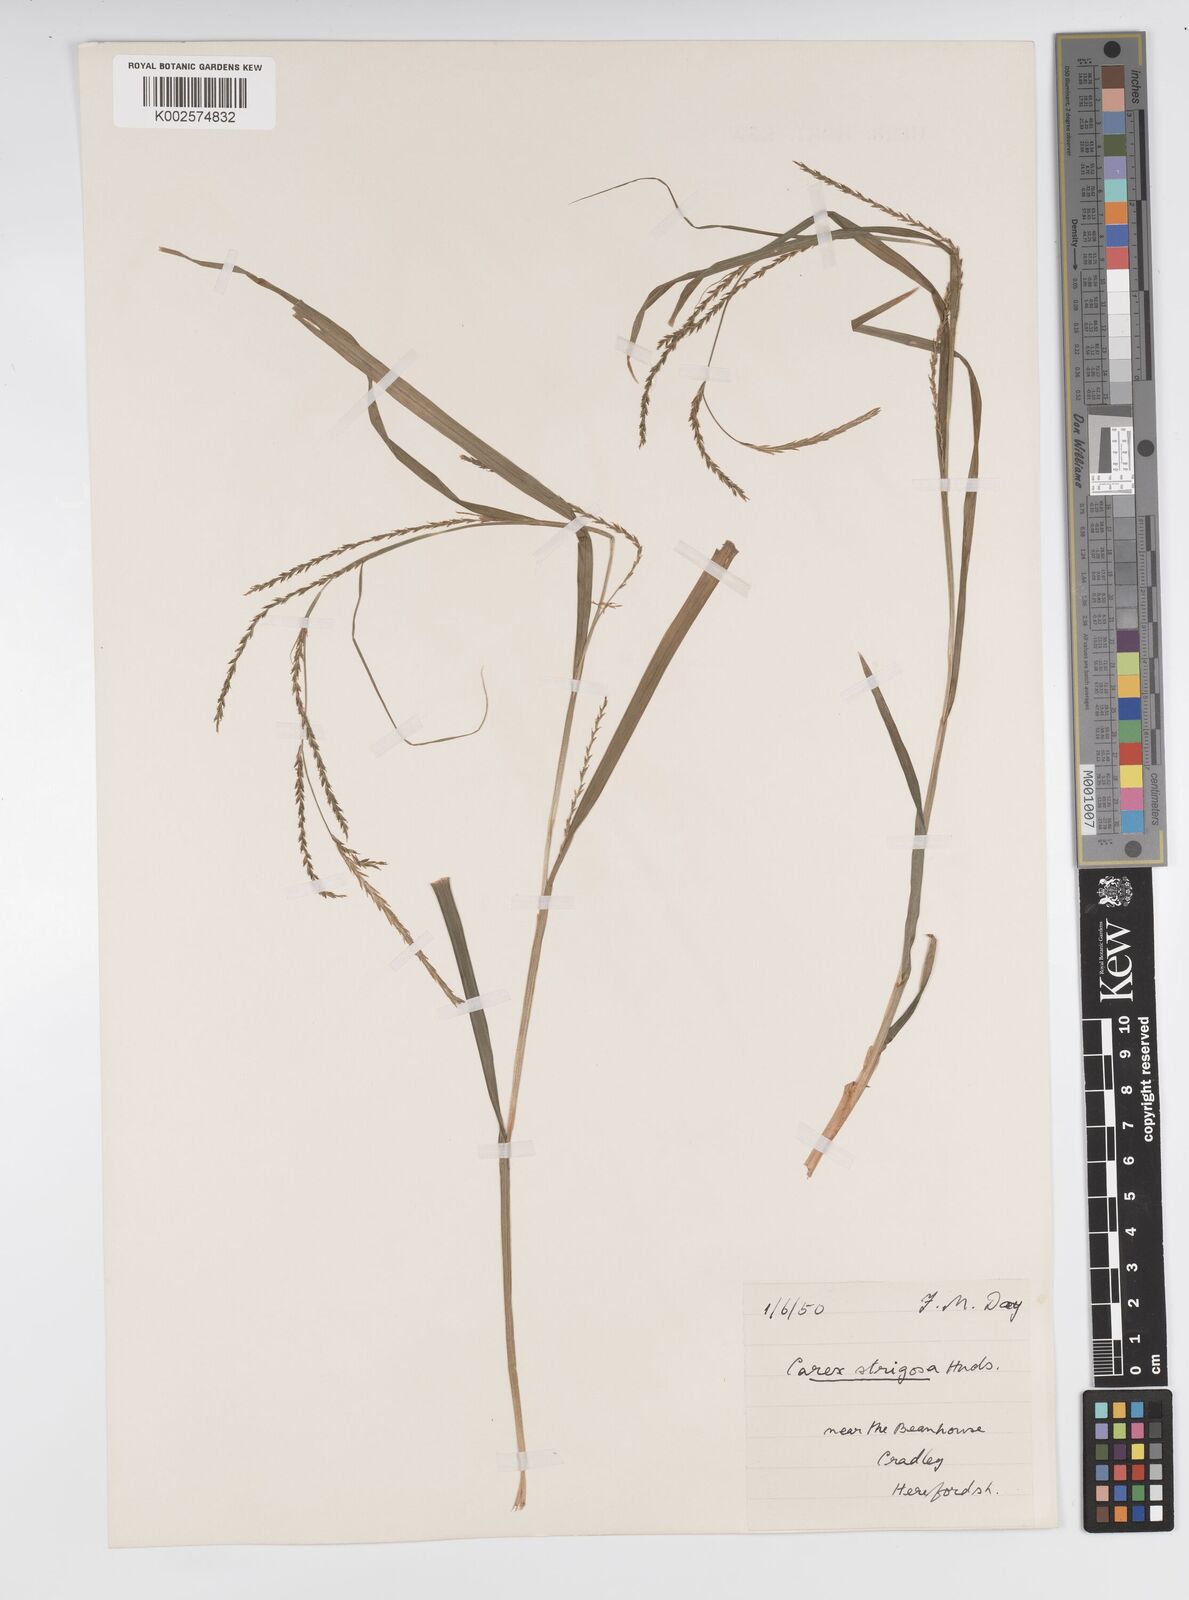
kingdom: Plantae
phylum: Tracheophyta
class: Liliopsida
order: Poales
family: Cyperaceae
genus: Carex
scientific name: Carex strigosa
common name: Thin-spiked wood-sedge
